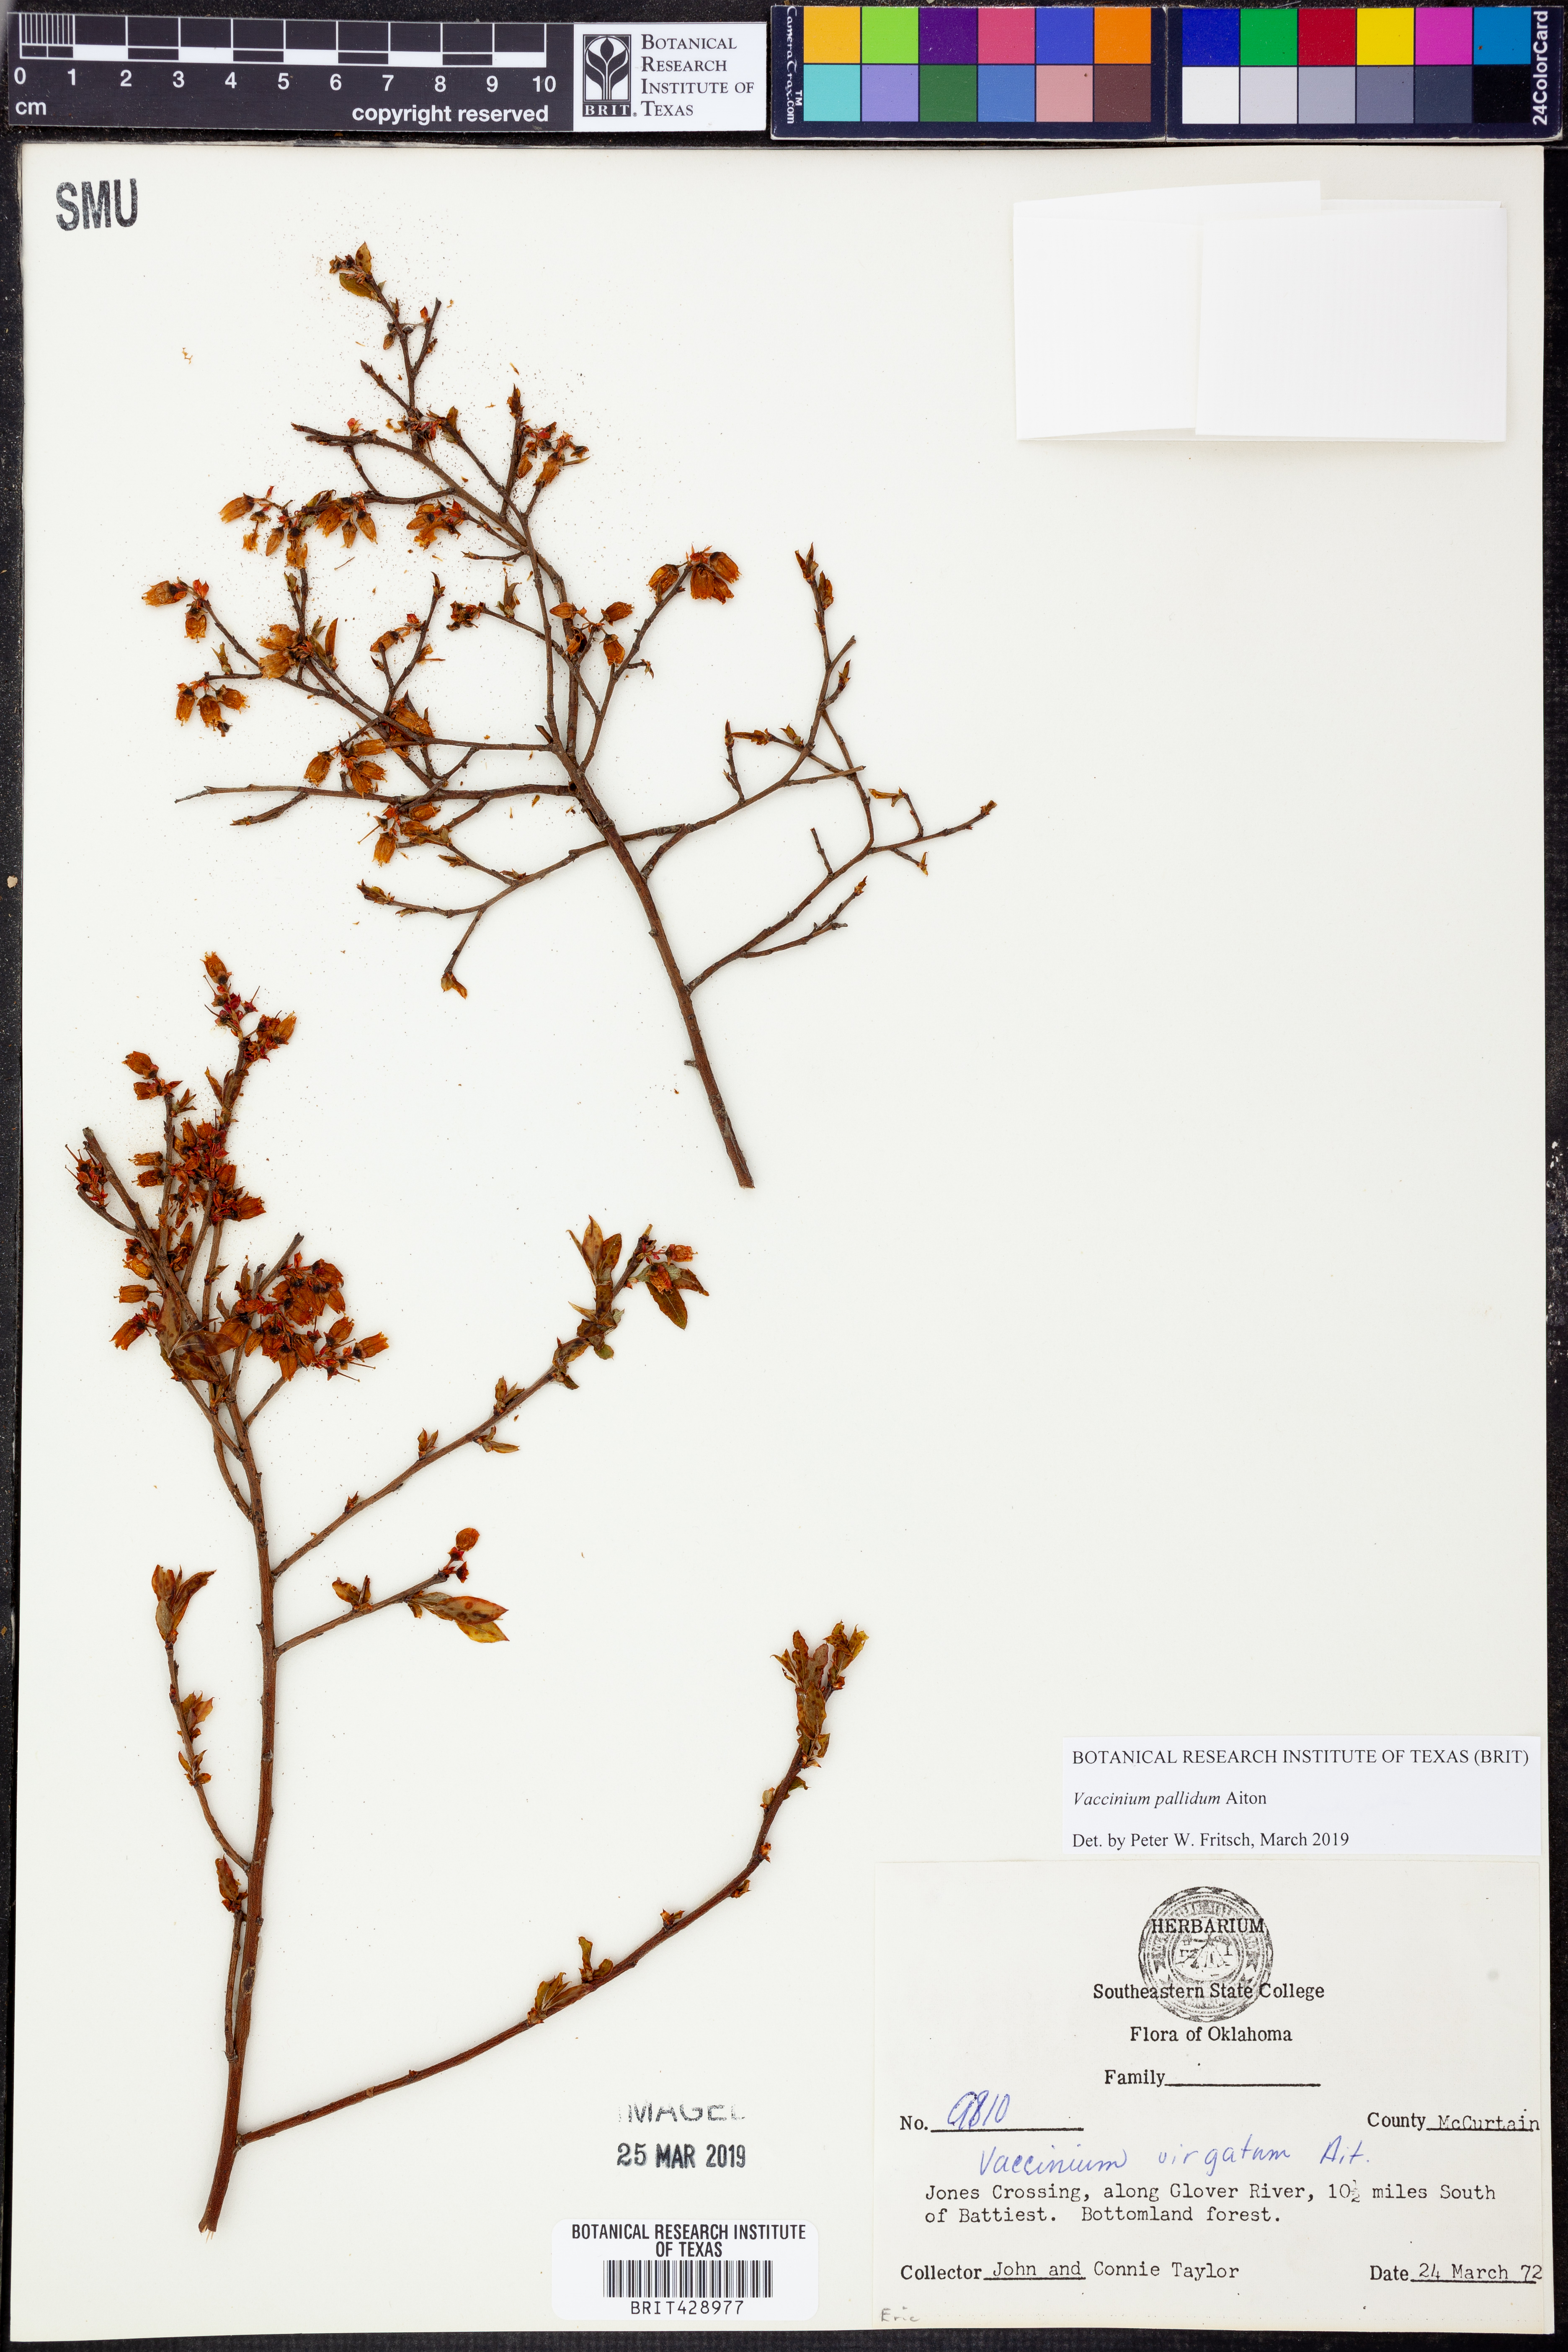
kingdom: Plantae
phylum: Tracheophyta
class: Magnoliopsida
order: Ericales
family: Ericaceae
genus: Vaccinium
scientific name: Vaccinium pallidum
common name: Blue ridge blueberry
